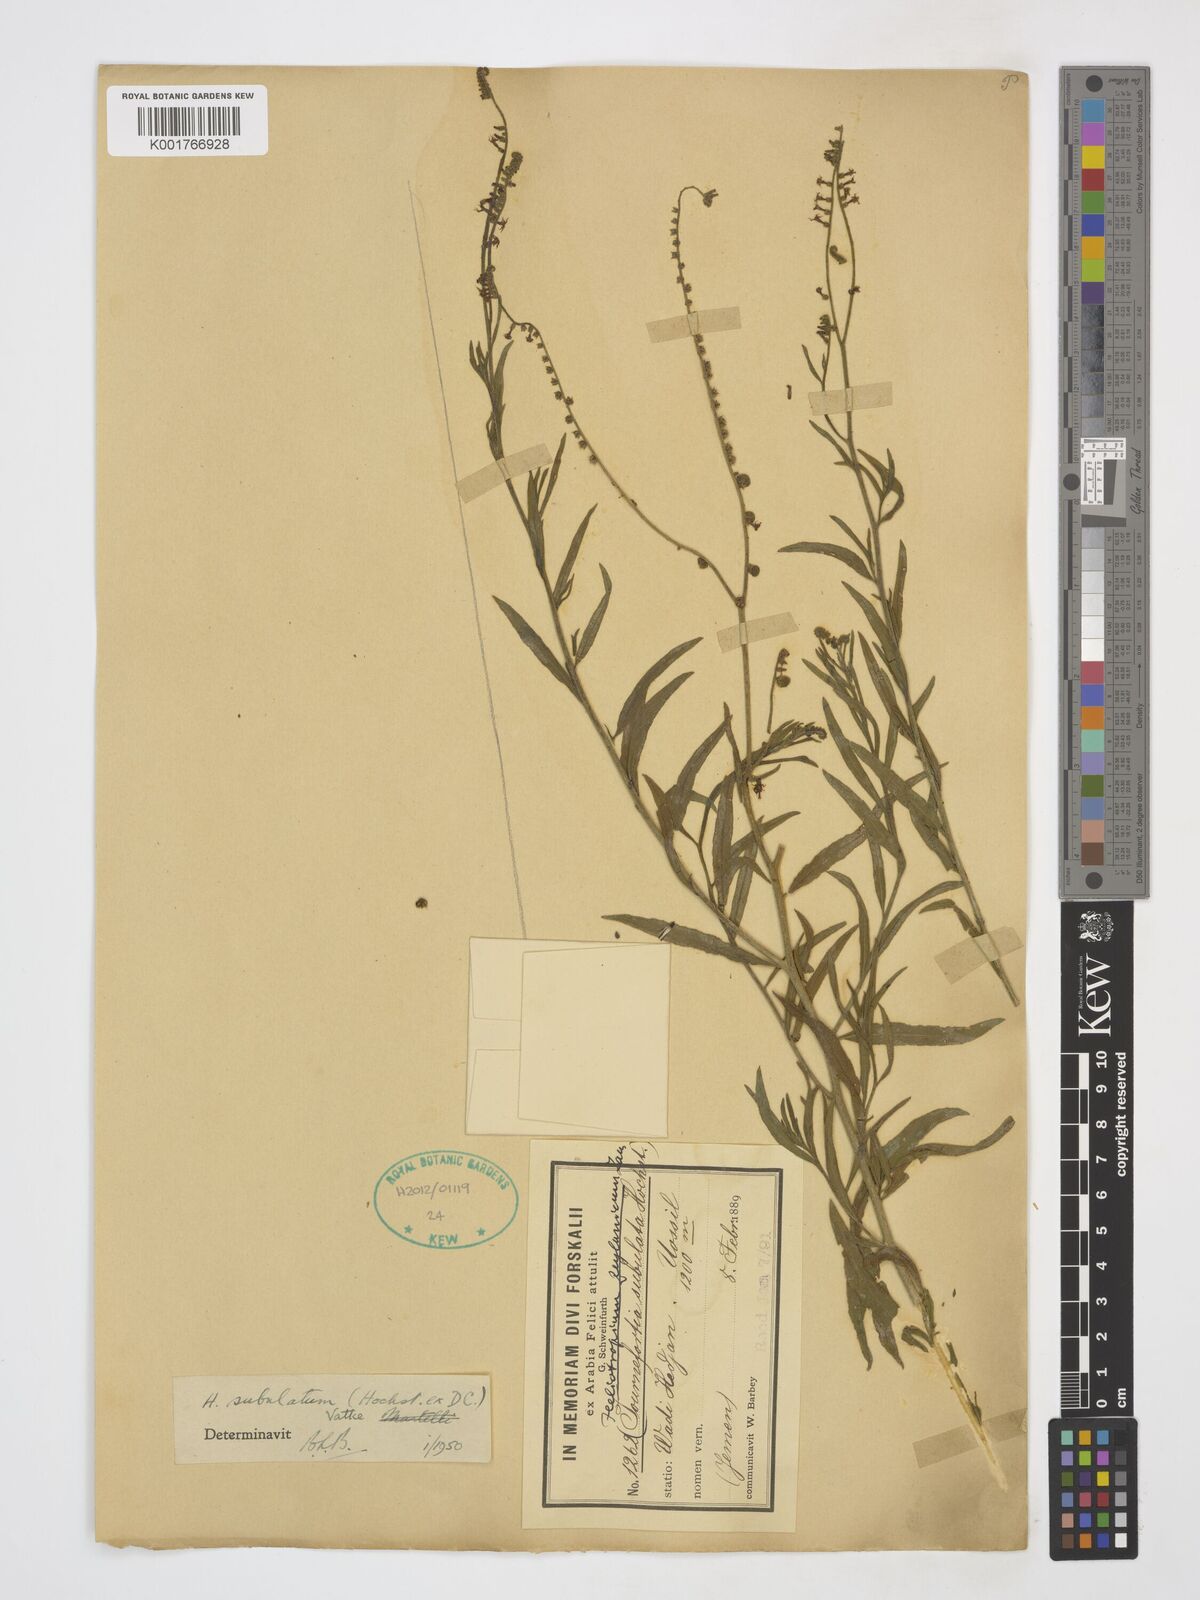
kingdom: Plantae
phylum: Tracheophyta
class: Magnoliopsida
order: Boraginales
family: Heliotropiaceae
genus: Heliotropium
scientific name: Heliotropium zeylanicum
